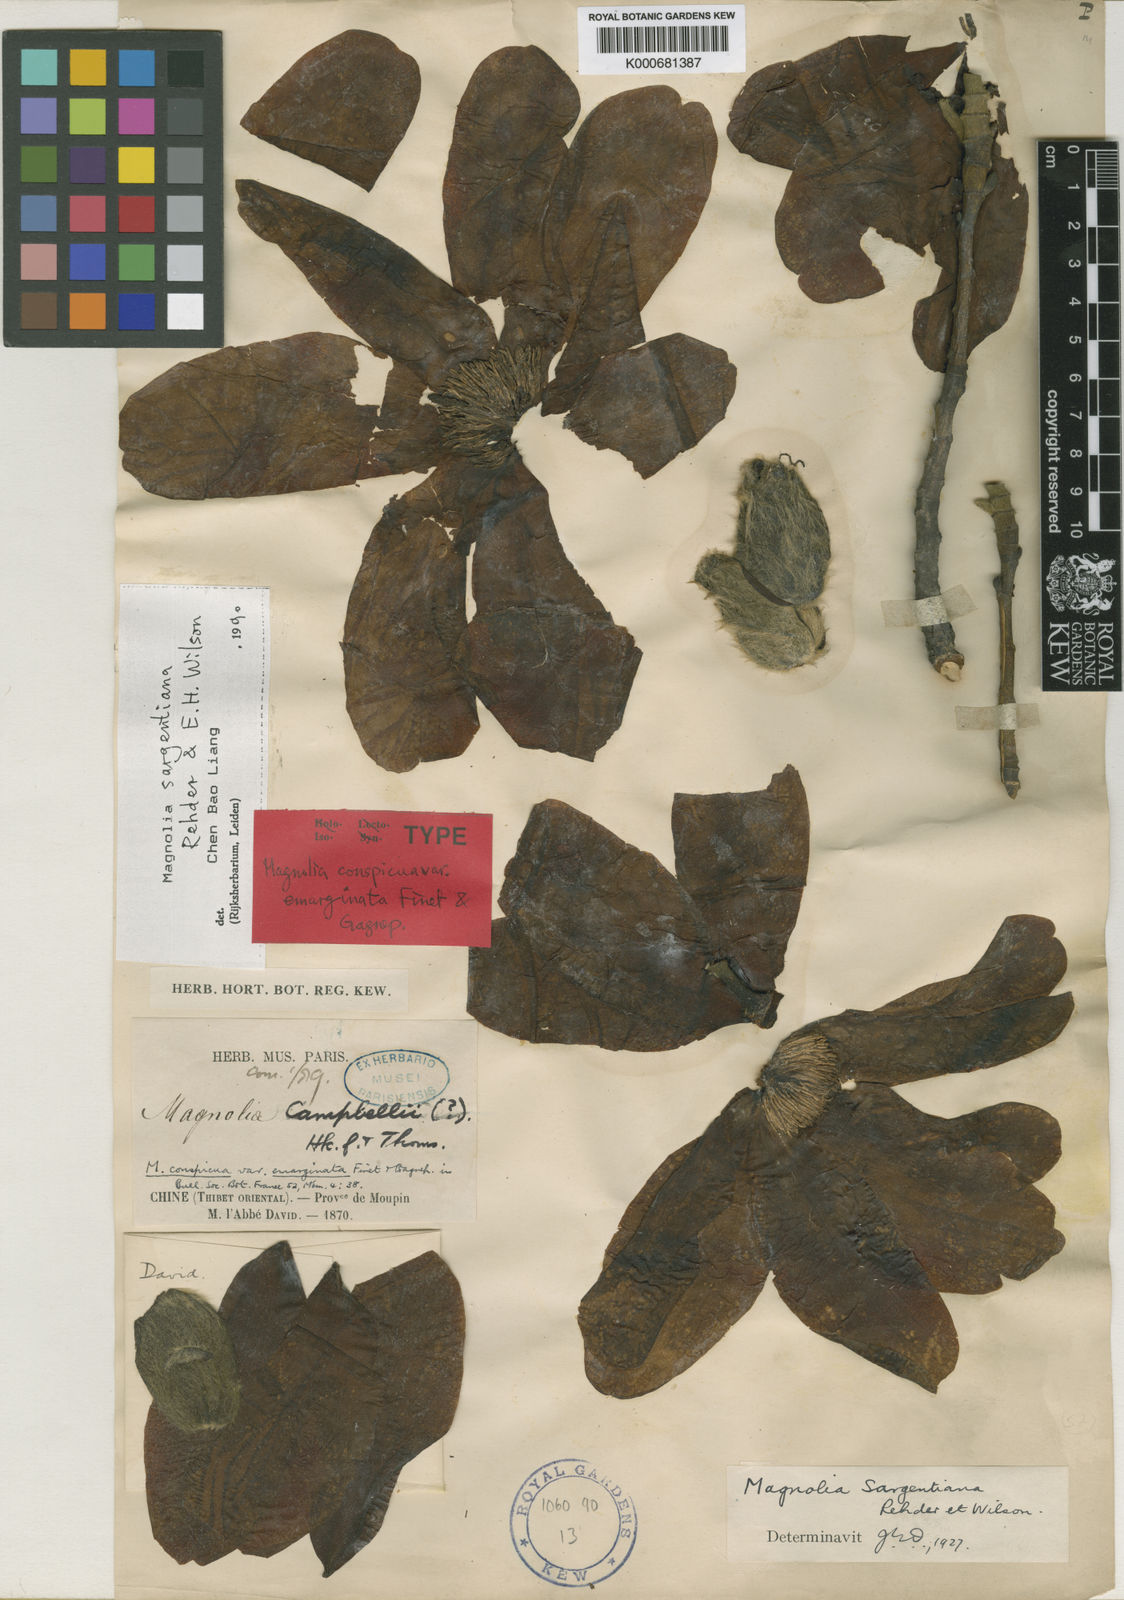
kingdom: Plantae
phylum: Tracheophyta
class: Magnoliopsida
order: Magnoliales
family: Magnoliaceae
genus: Magnolia
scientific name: Magnolia sargentiana
